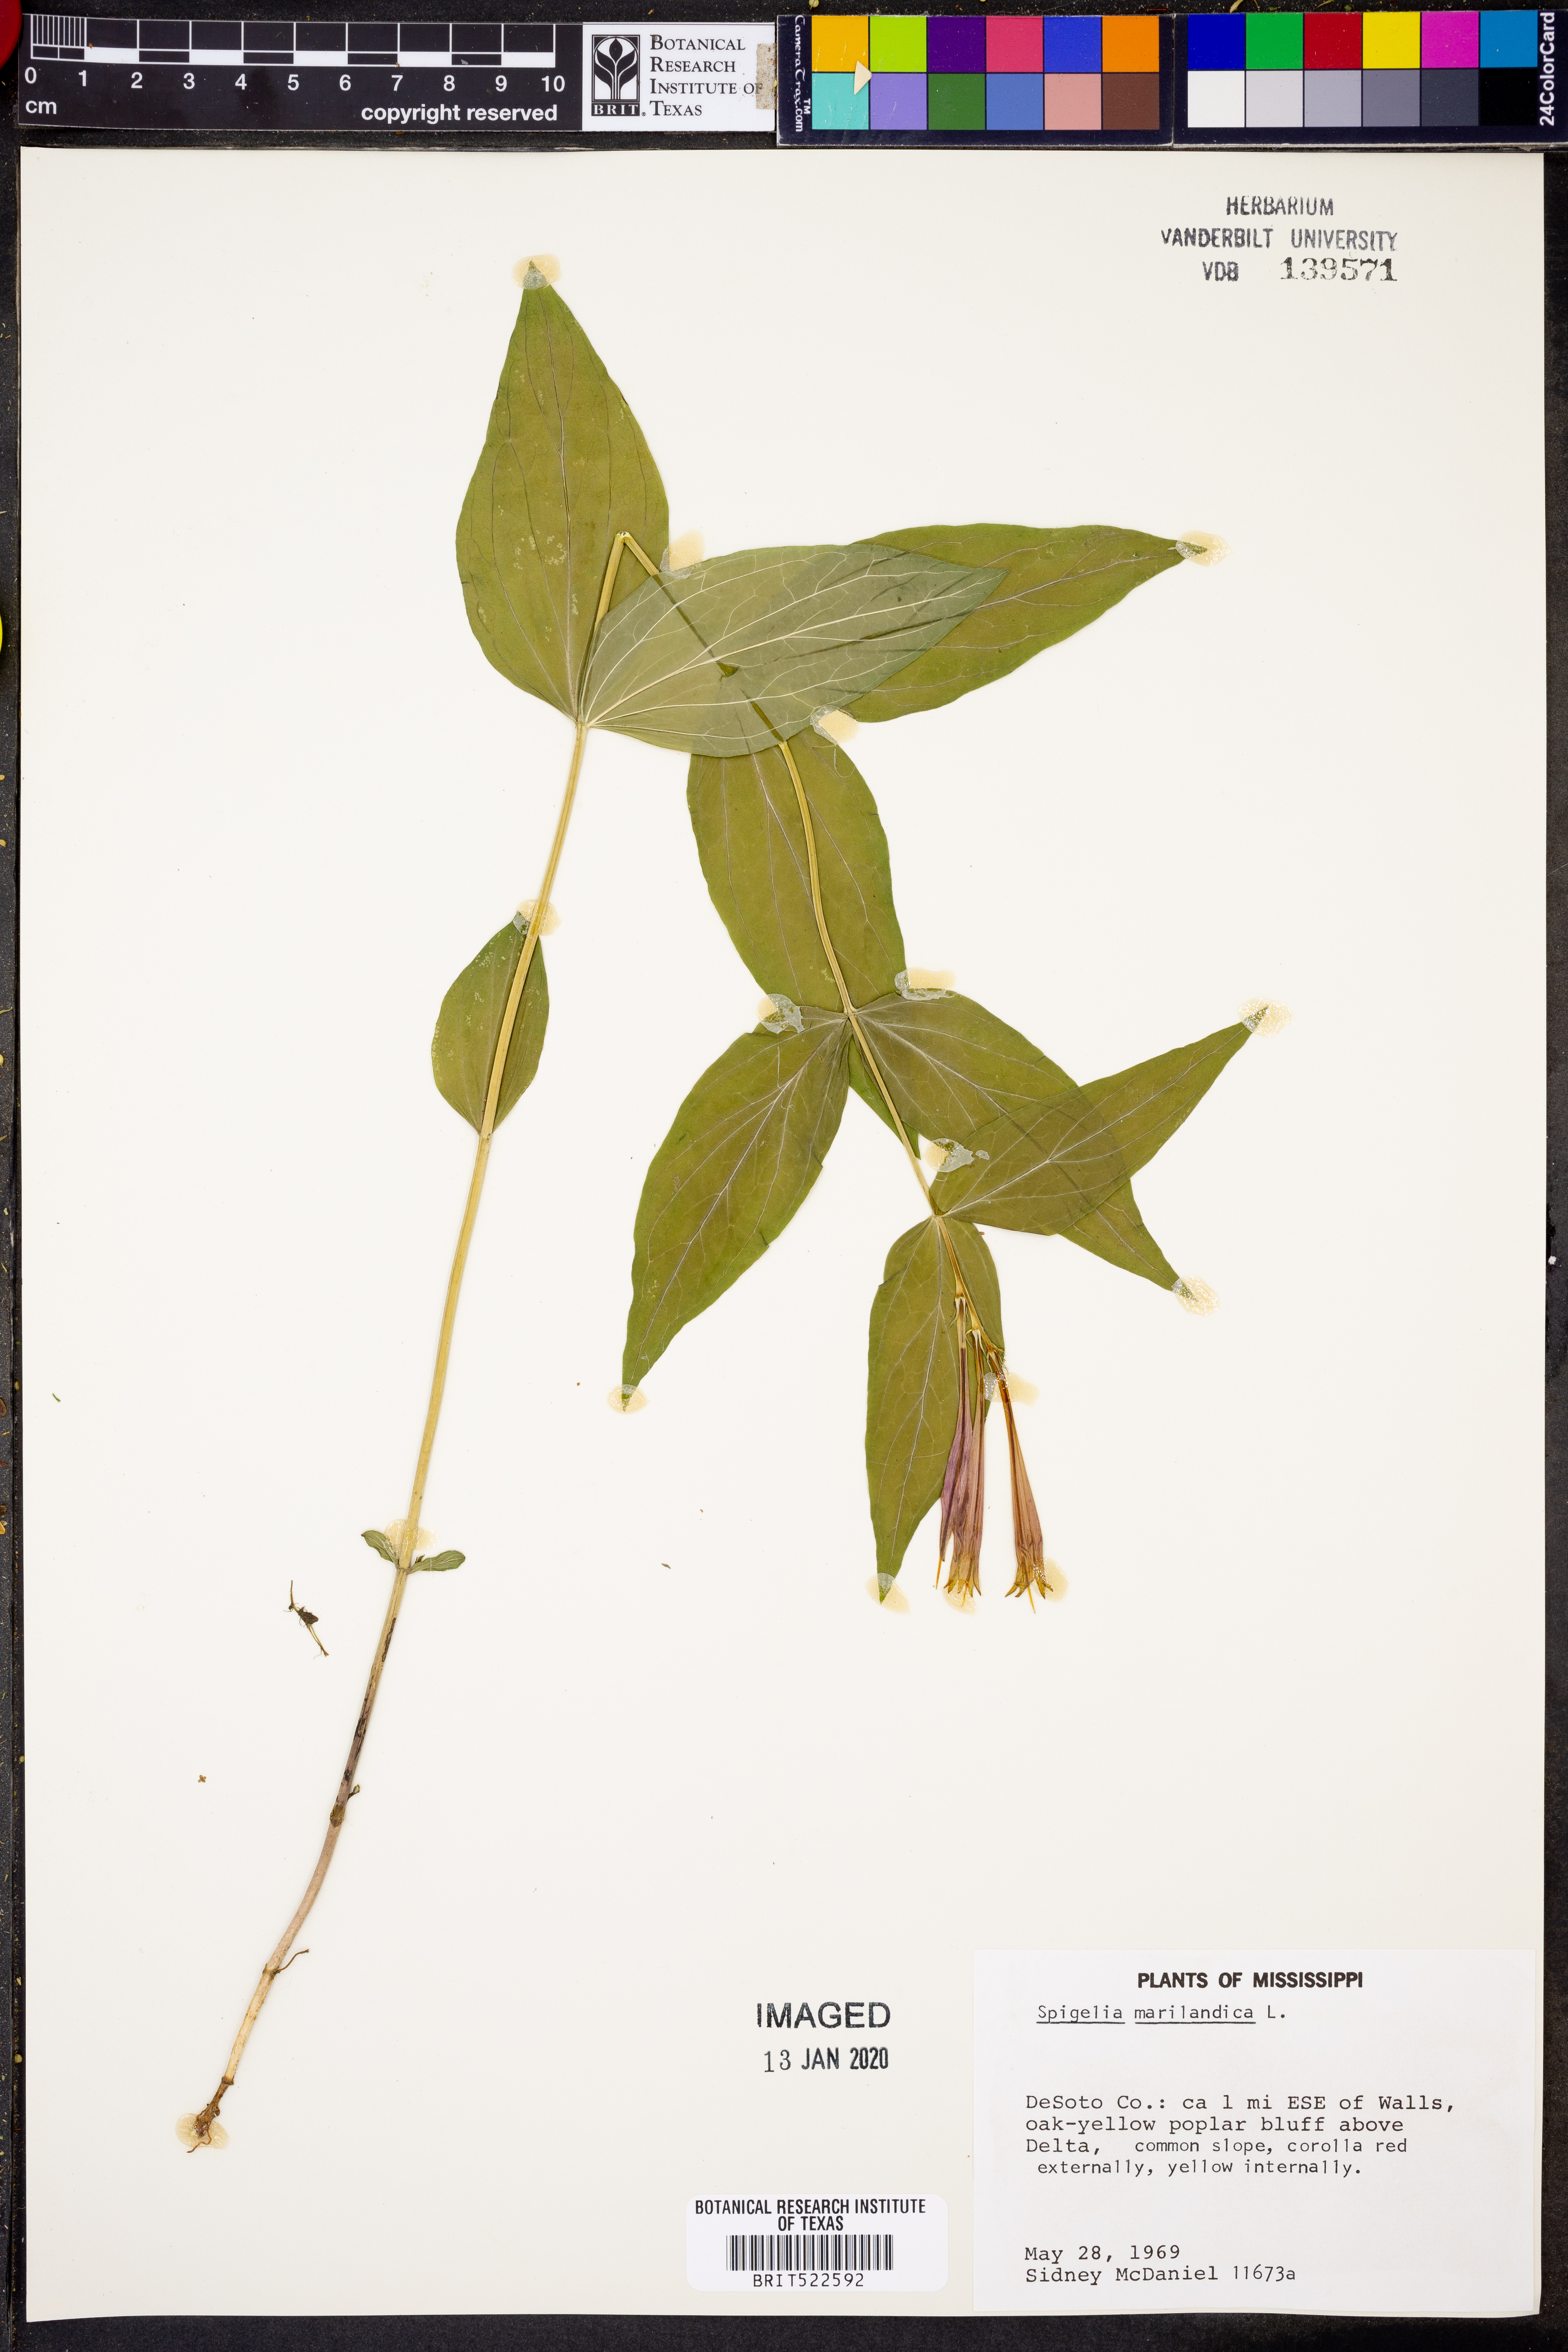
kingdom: Plantae
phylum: Tracheophyta
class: Magnoliopsida
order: Gentianales
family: Loganiaceae
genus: Spigelia
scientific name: Spigelia marilandica
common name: Indian-pink
